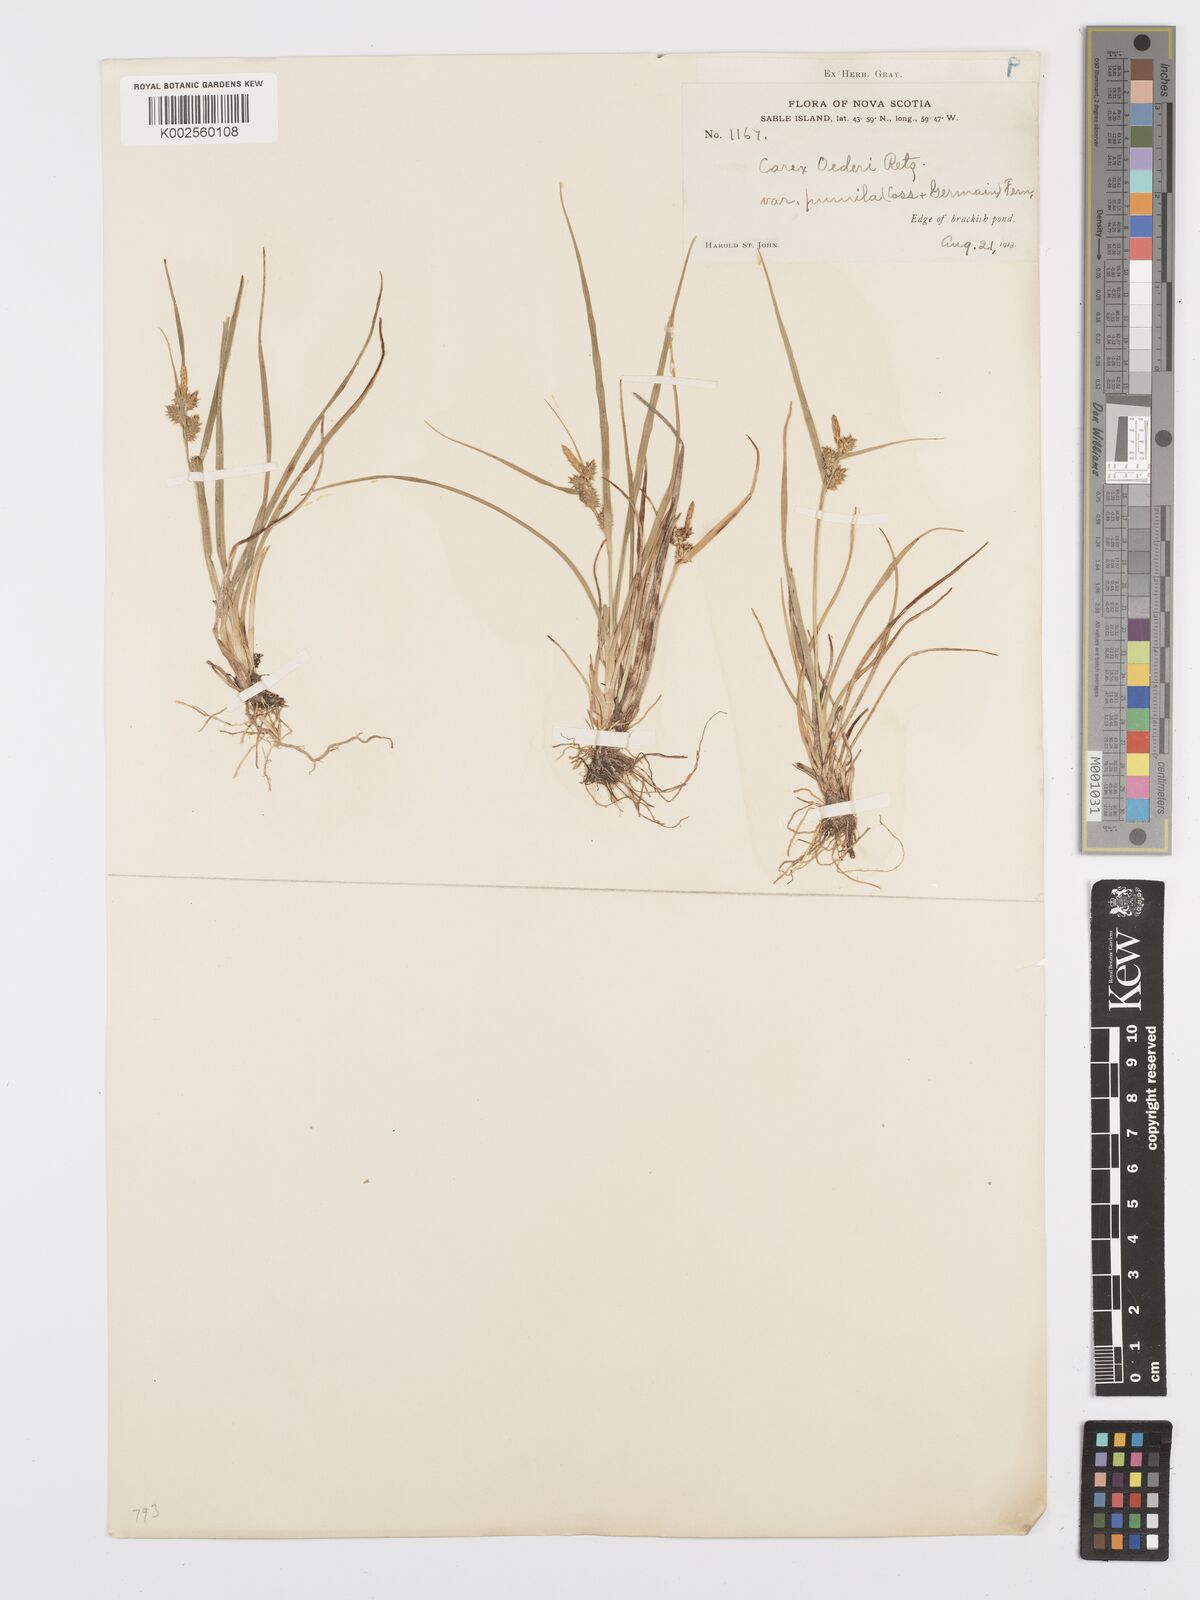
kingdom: Plantae
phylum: Tracheophyta
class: Liliopsida
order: Poales
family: Cyperaceae
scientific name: Cyperaceae
